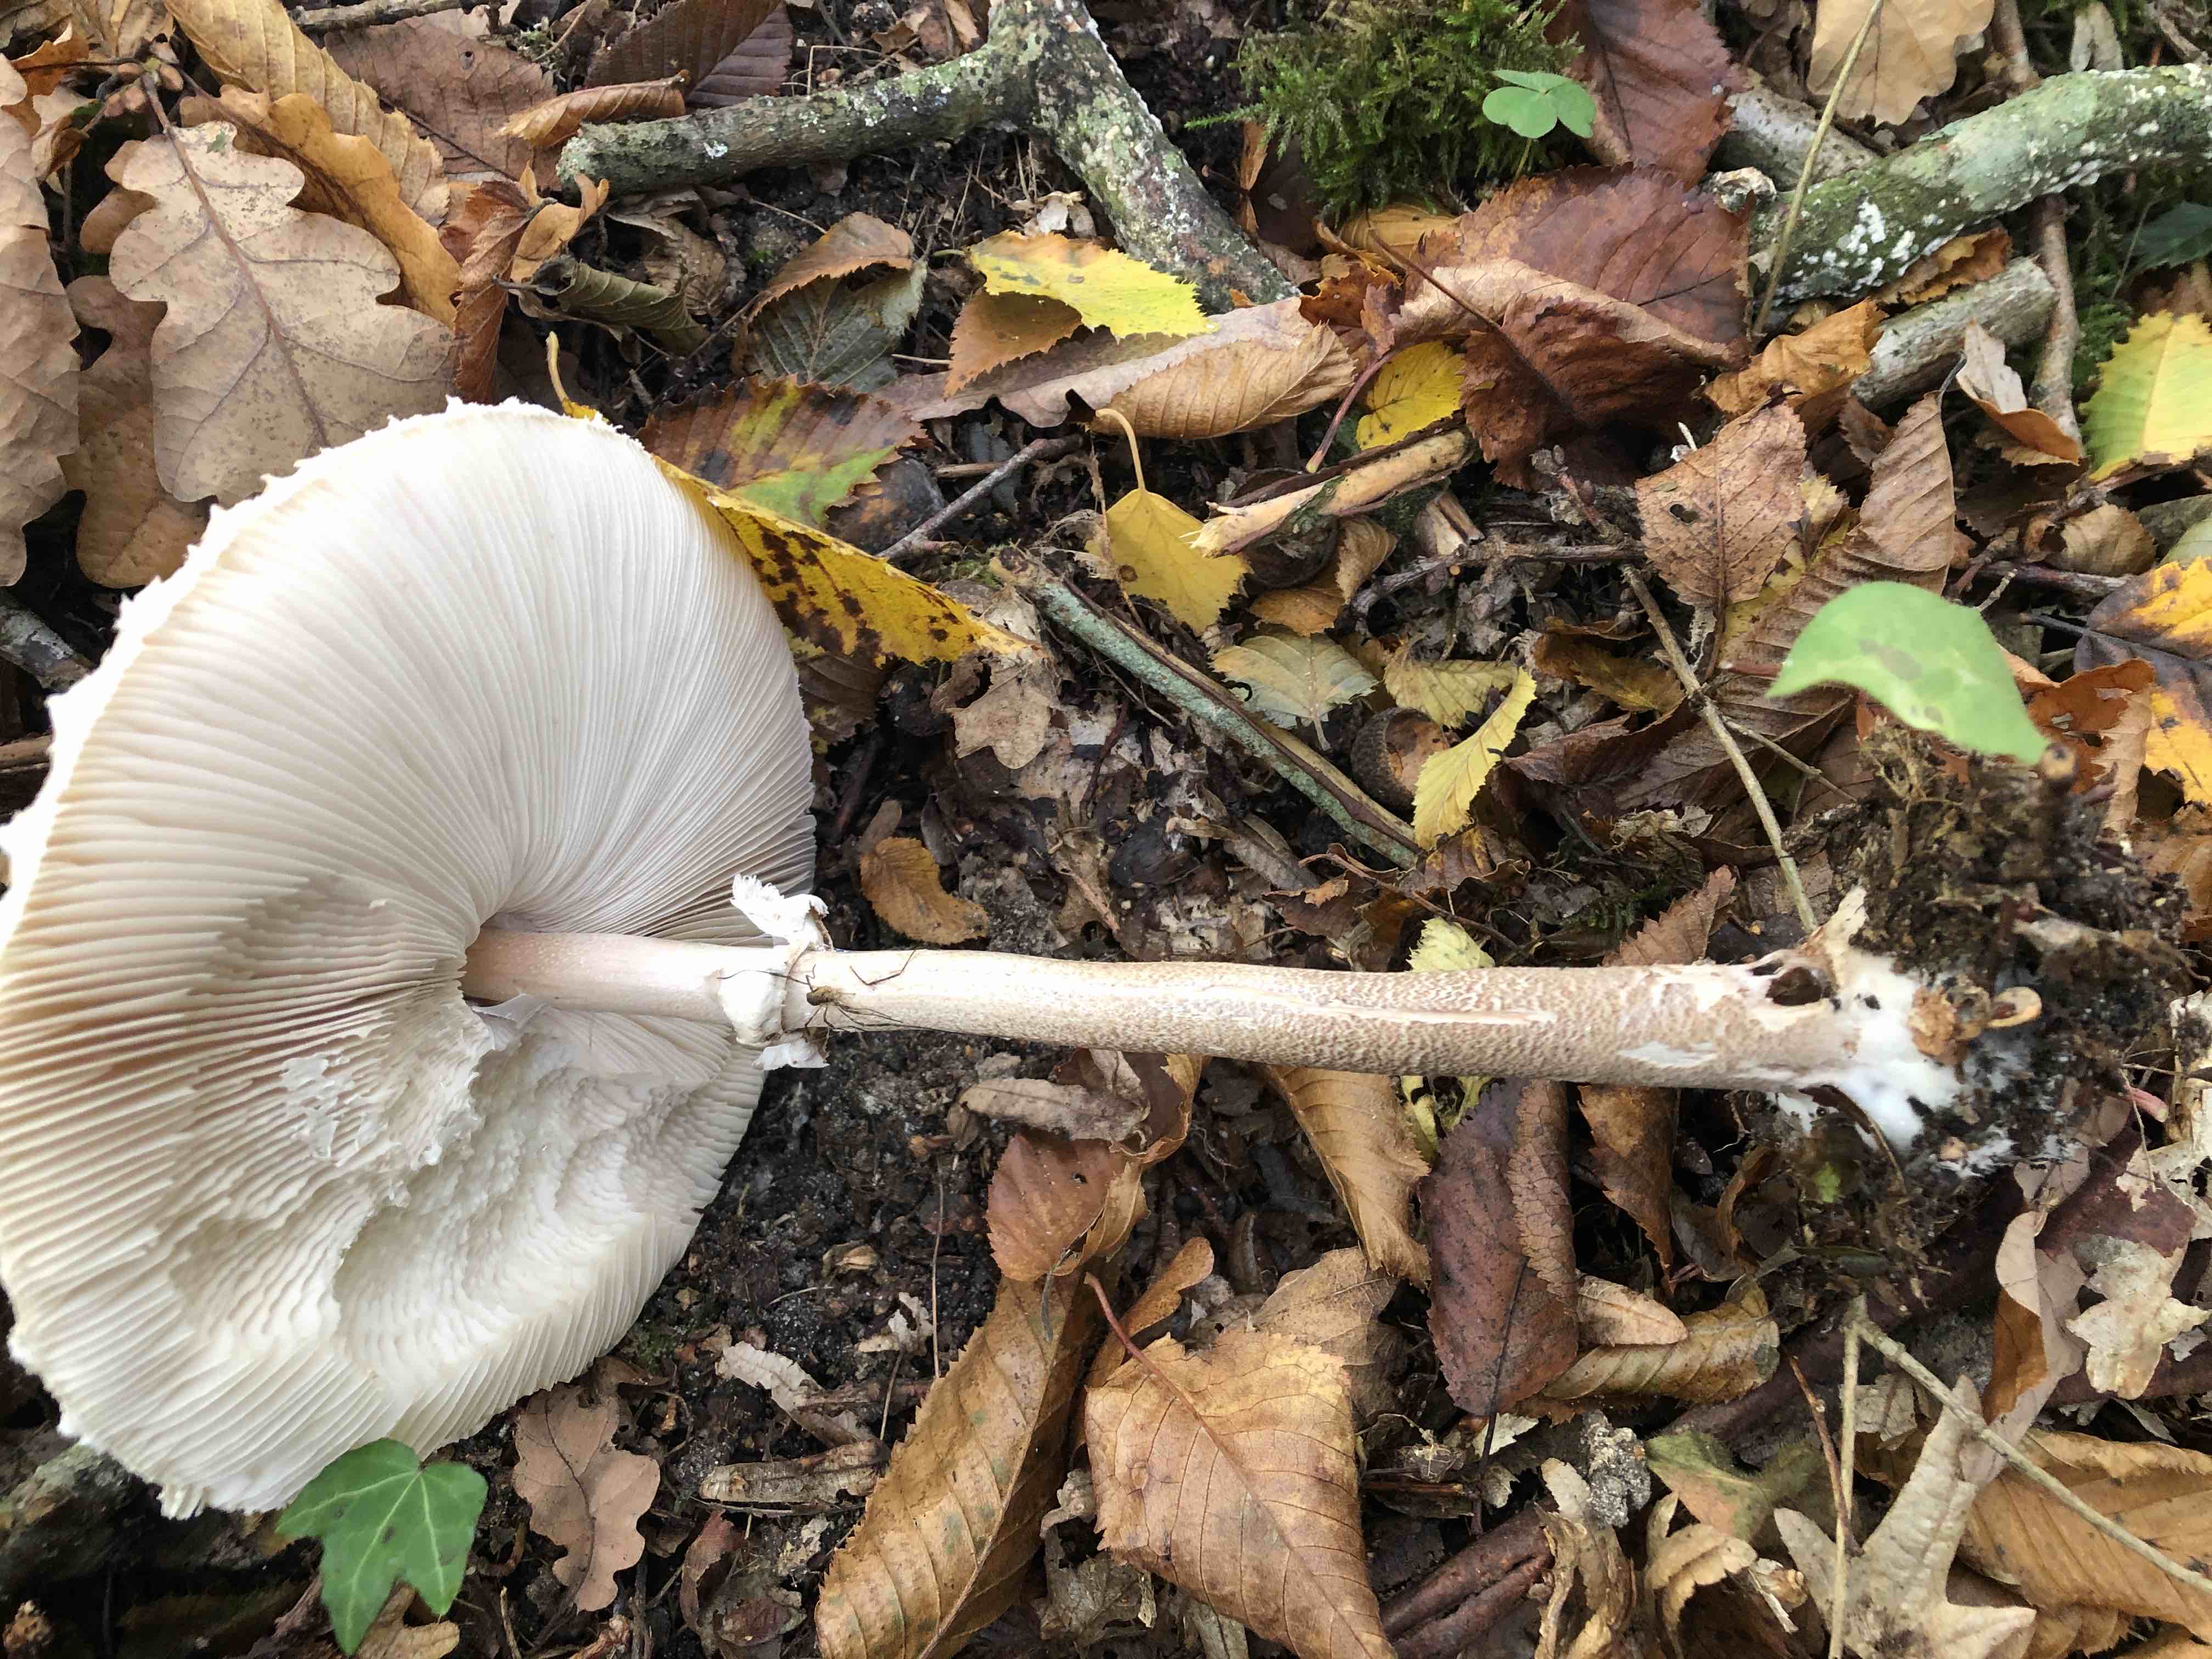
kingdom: Fungi
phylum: Basidiomycota
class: Agaricomycetes
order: Agaricales
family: Agaricaceae
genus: Macrolepiota
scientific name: Macrolepiota procera
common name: stor kæmpeparasolhat
